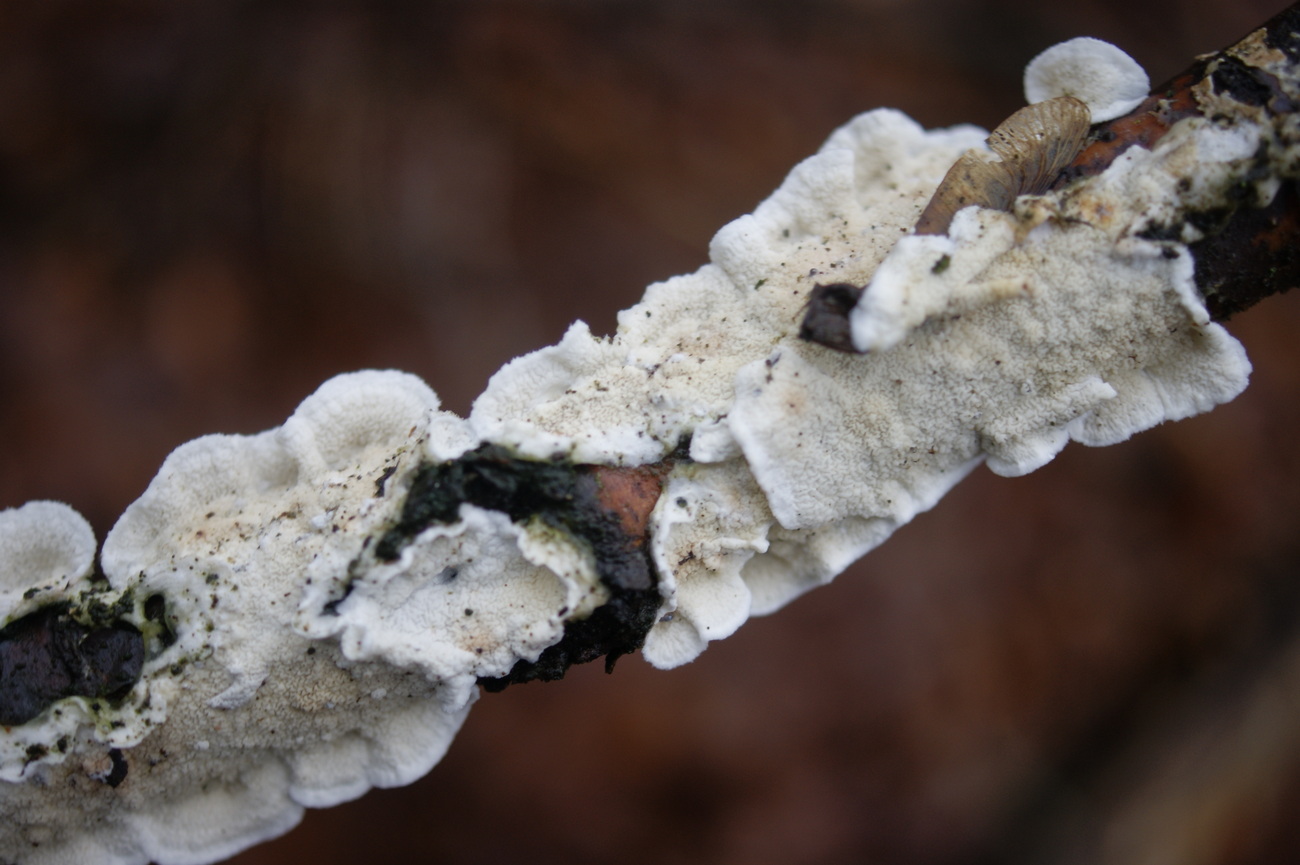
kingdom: Fungi
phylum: Basidiomycota
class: Agaricomycetes
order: Polyporales
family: Irpicaceae
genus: Byssomerulius
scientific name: Byssomerulius corium
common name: læder-åresvamp
